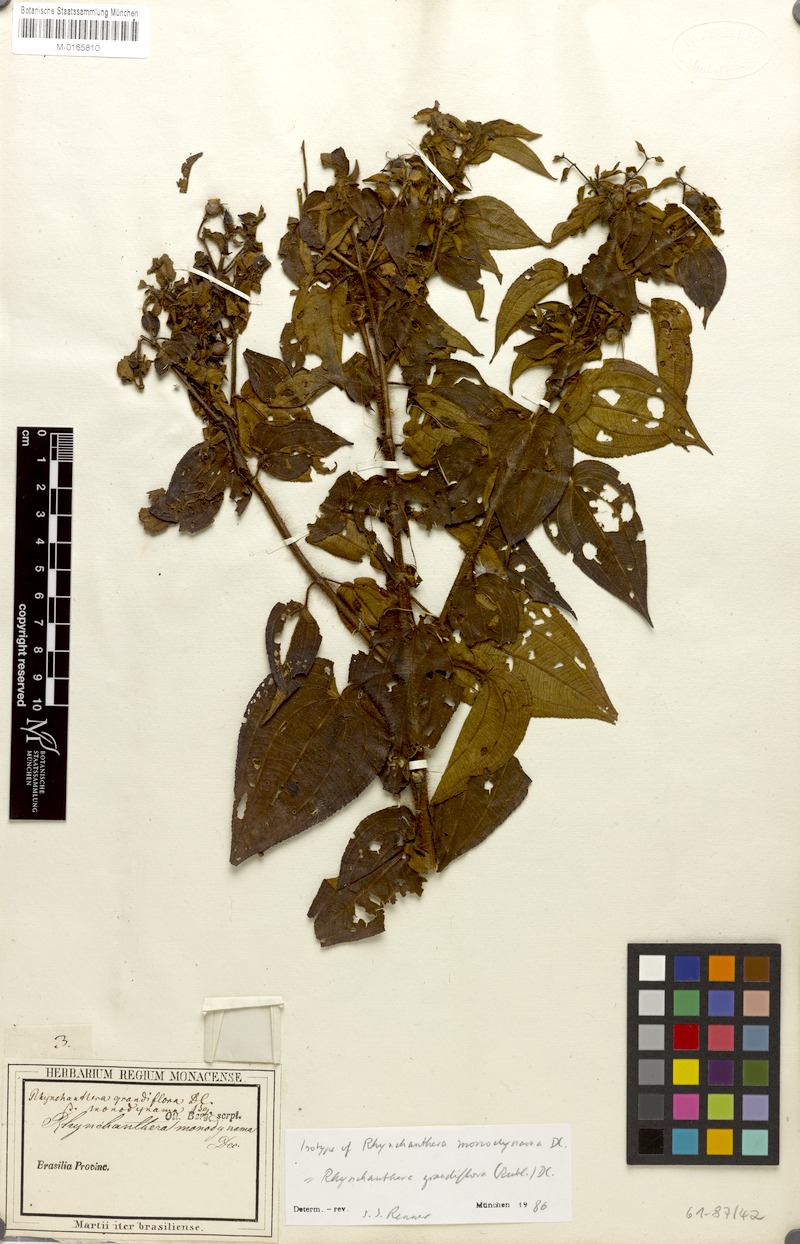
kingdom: Plantae
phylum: Tracheophyta
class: Magnoliopsida
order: Myrtales
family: Melastomataceae
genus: Rhynchanthera
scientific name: Rhynchanthera grandiflora
